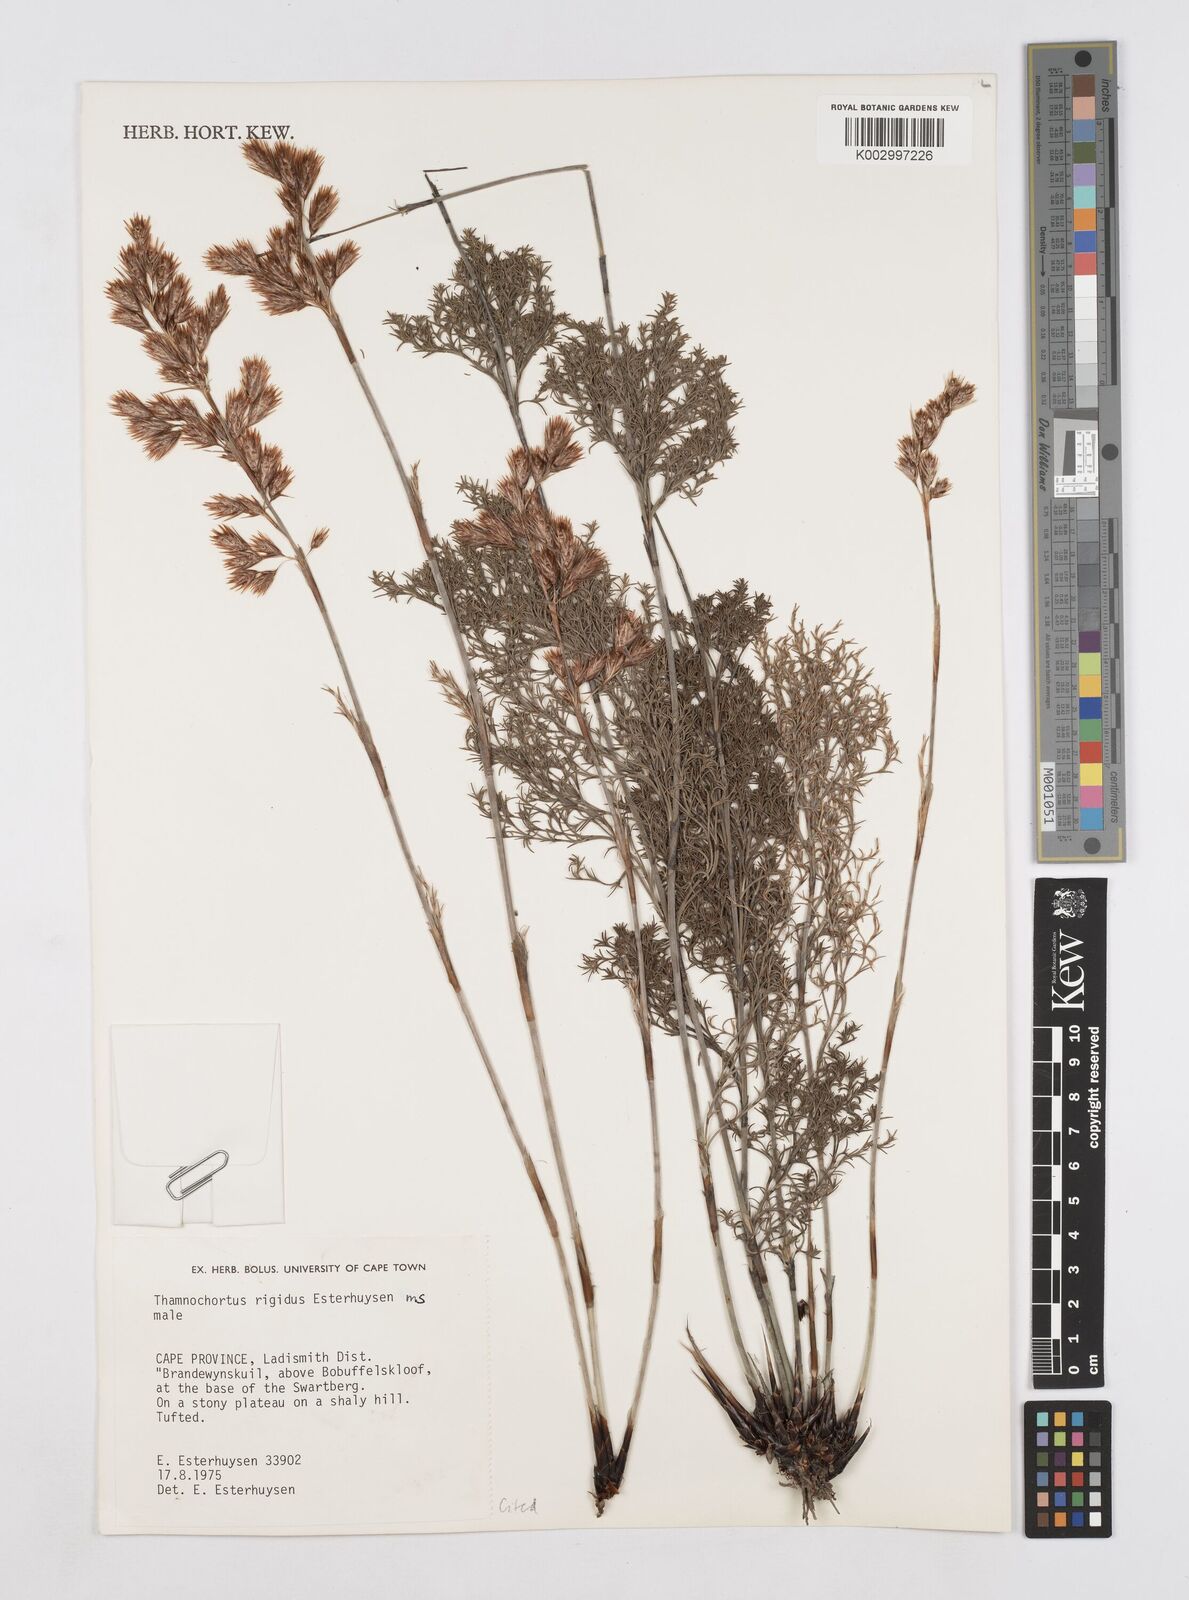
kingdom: Plantae
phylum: Tracheophyta
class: Liliopsida
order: Poales
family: Restionaceae
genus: Thamnochortus
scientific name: Thamnochortus rigidus
